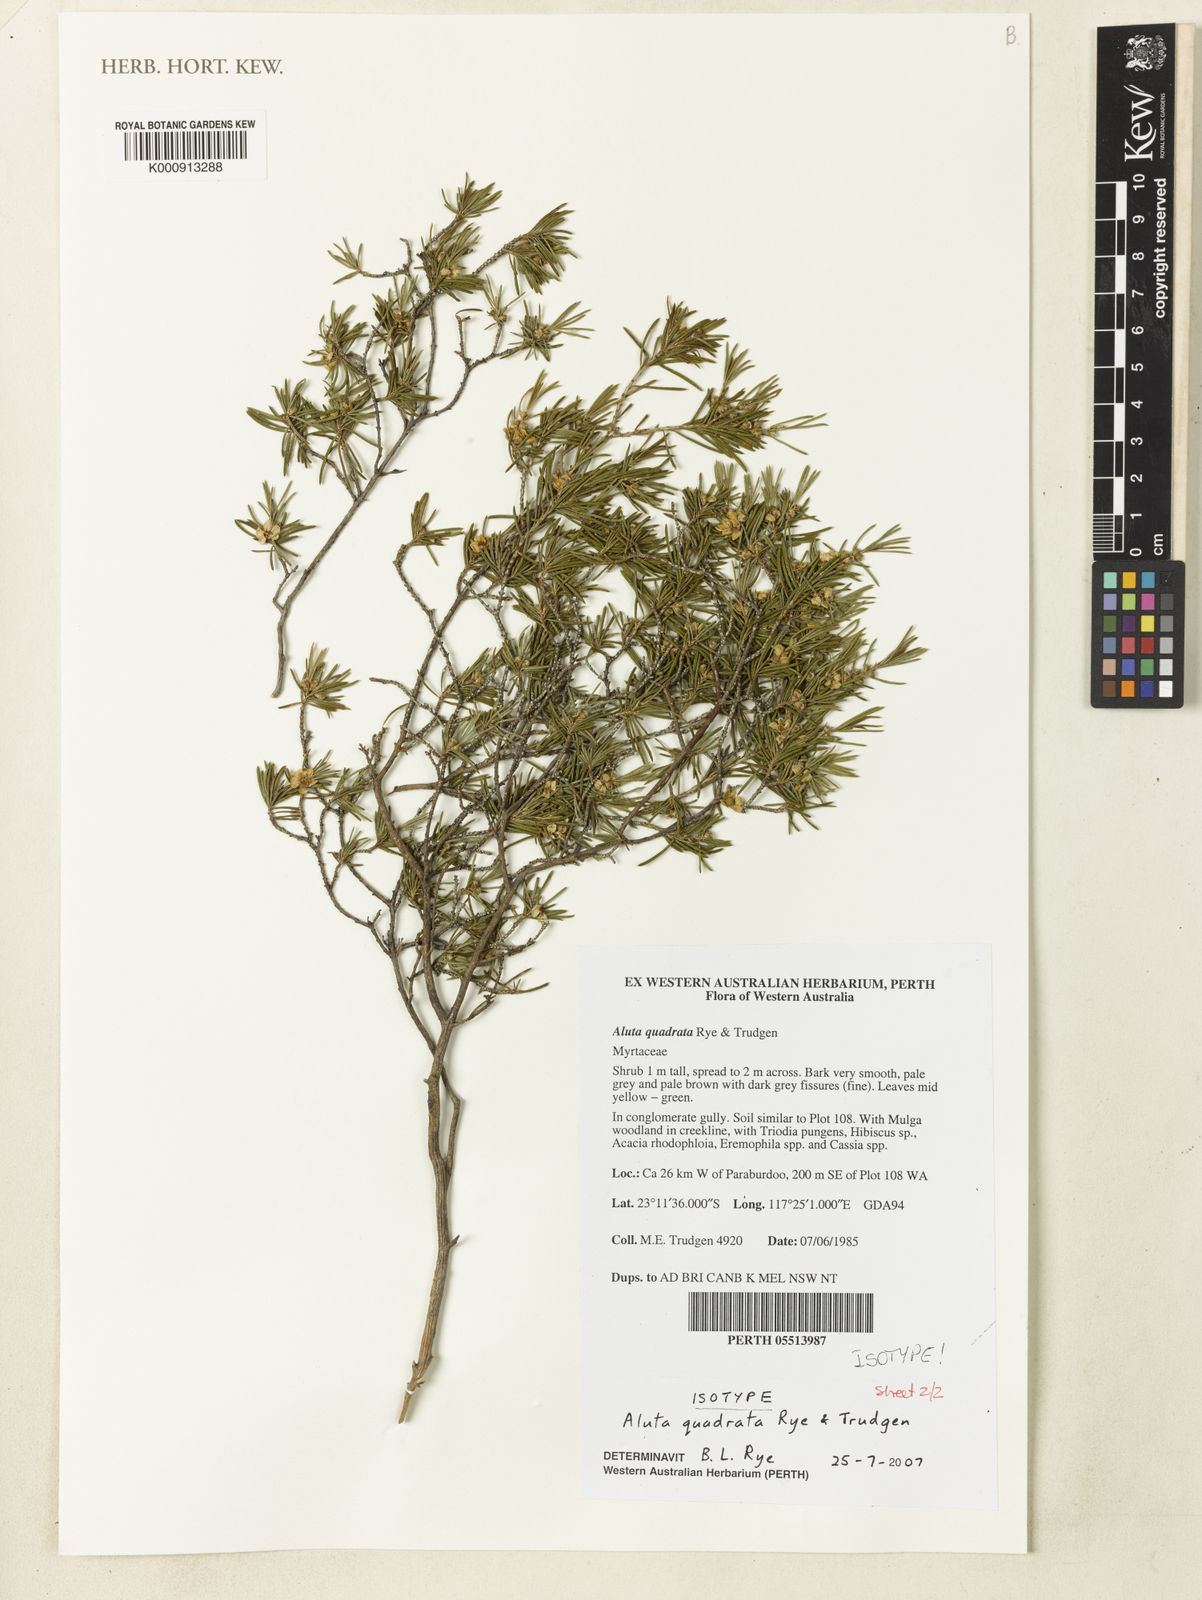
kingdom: Plantae
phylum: Tracheophyta
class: Magnoliopsida
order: Myrtales
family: Myrtaceae
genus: Aluta
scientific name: Aluta quadrata
